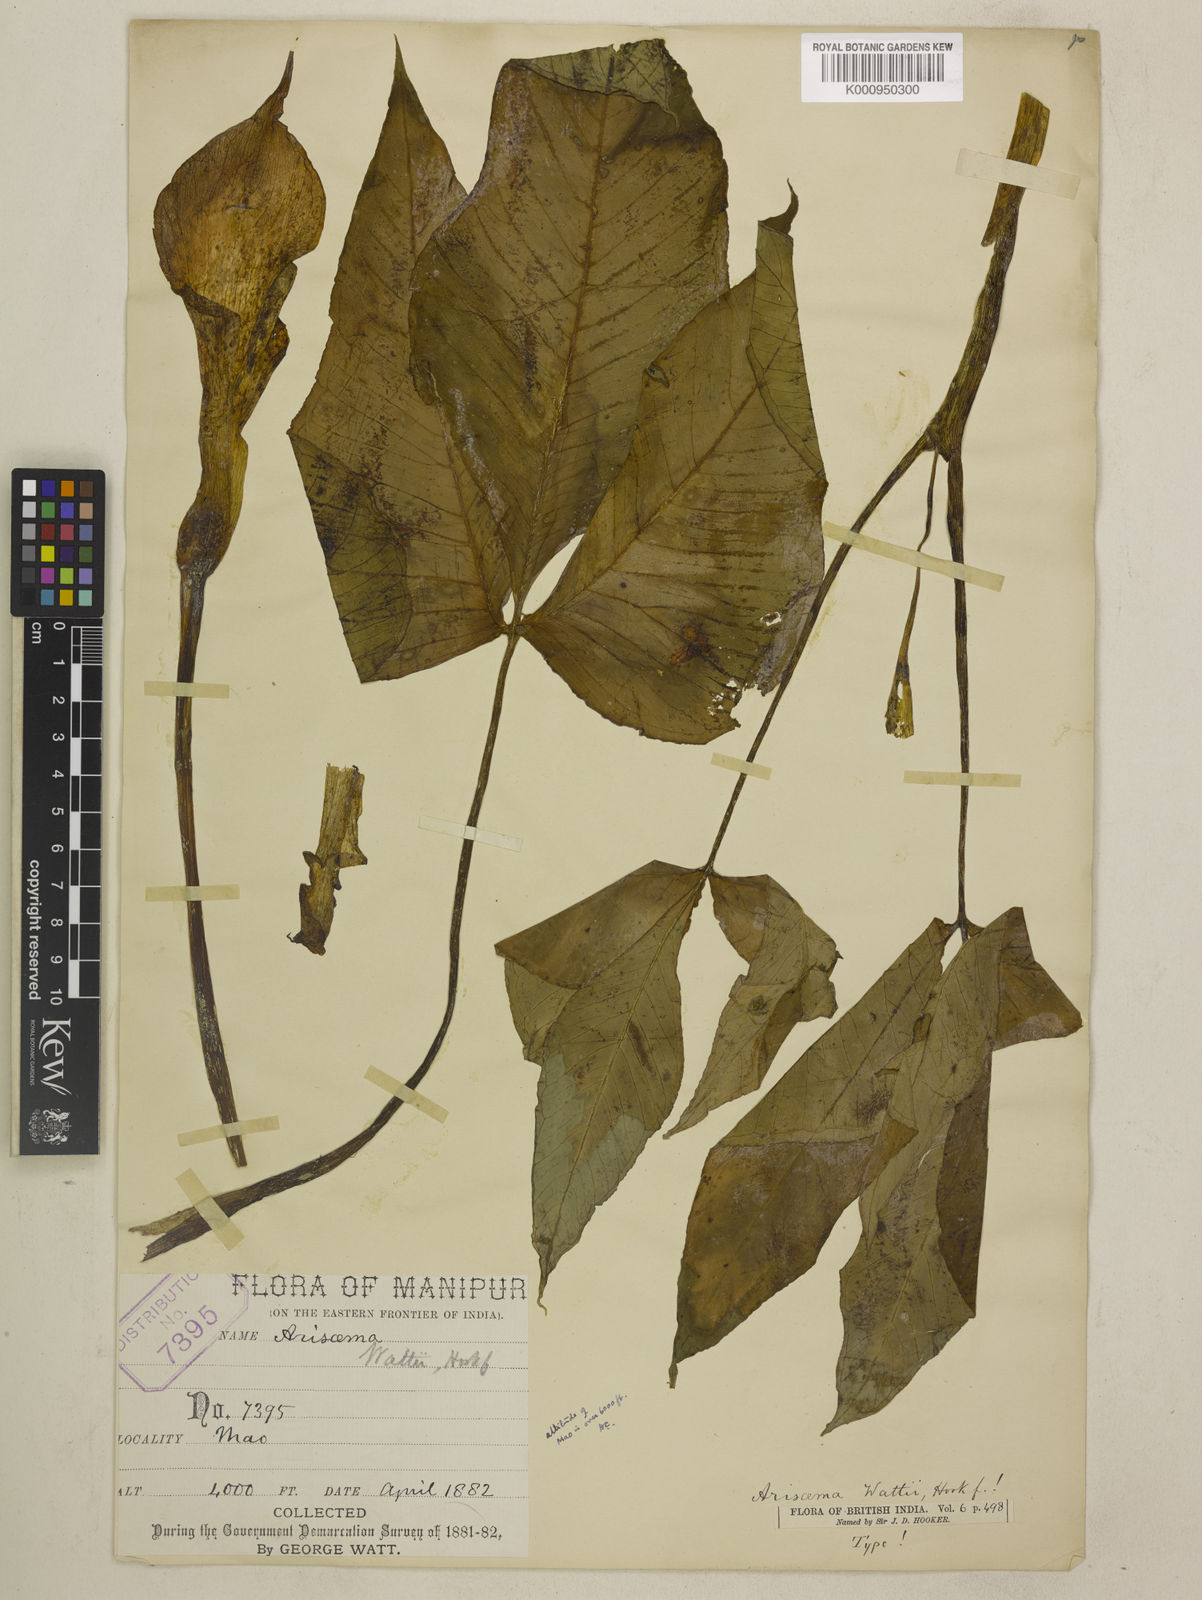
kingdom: Plantae
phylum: Tracheophyta
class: Liliopsida
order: Alismatales
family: Araceae
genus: Arisaema
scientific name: Arisaema wattii
